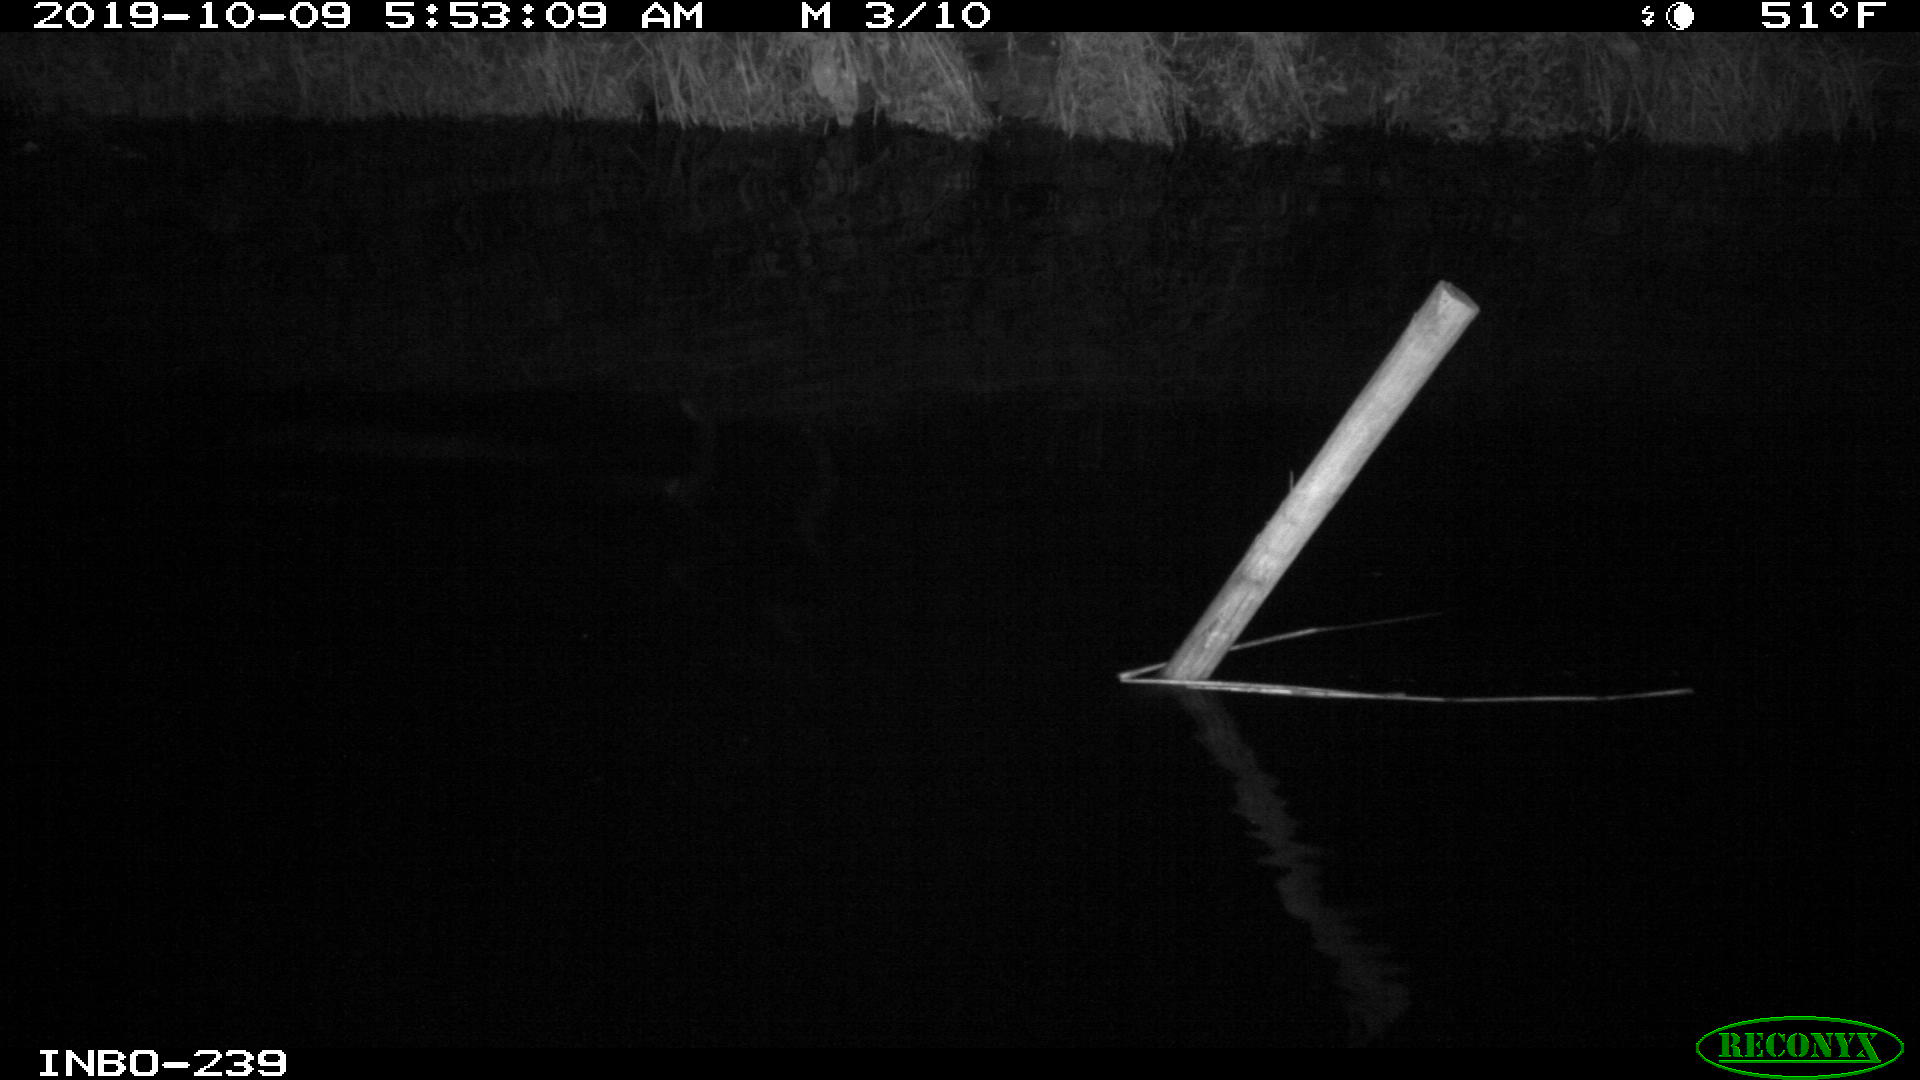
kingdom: Animalia
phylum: Chordata
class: Aves
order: Anseriformes
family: Anatidae
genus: Anas
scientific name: Anas platyrhynchos
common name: Mallard
